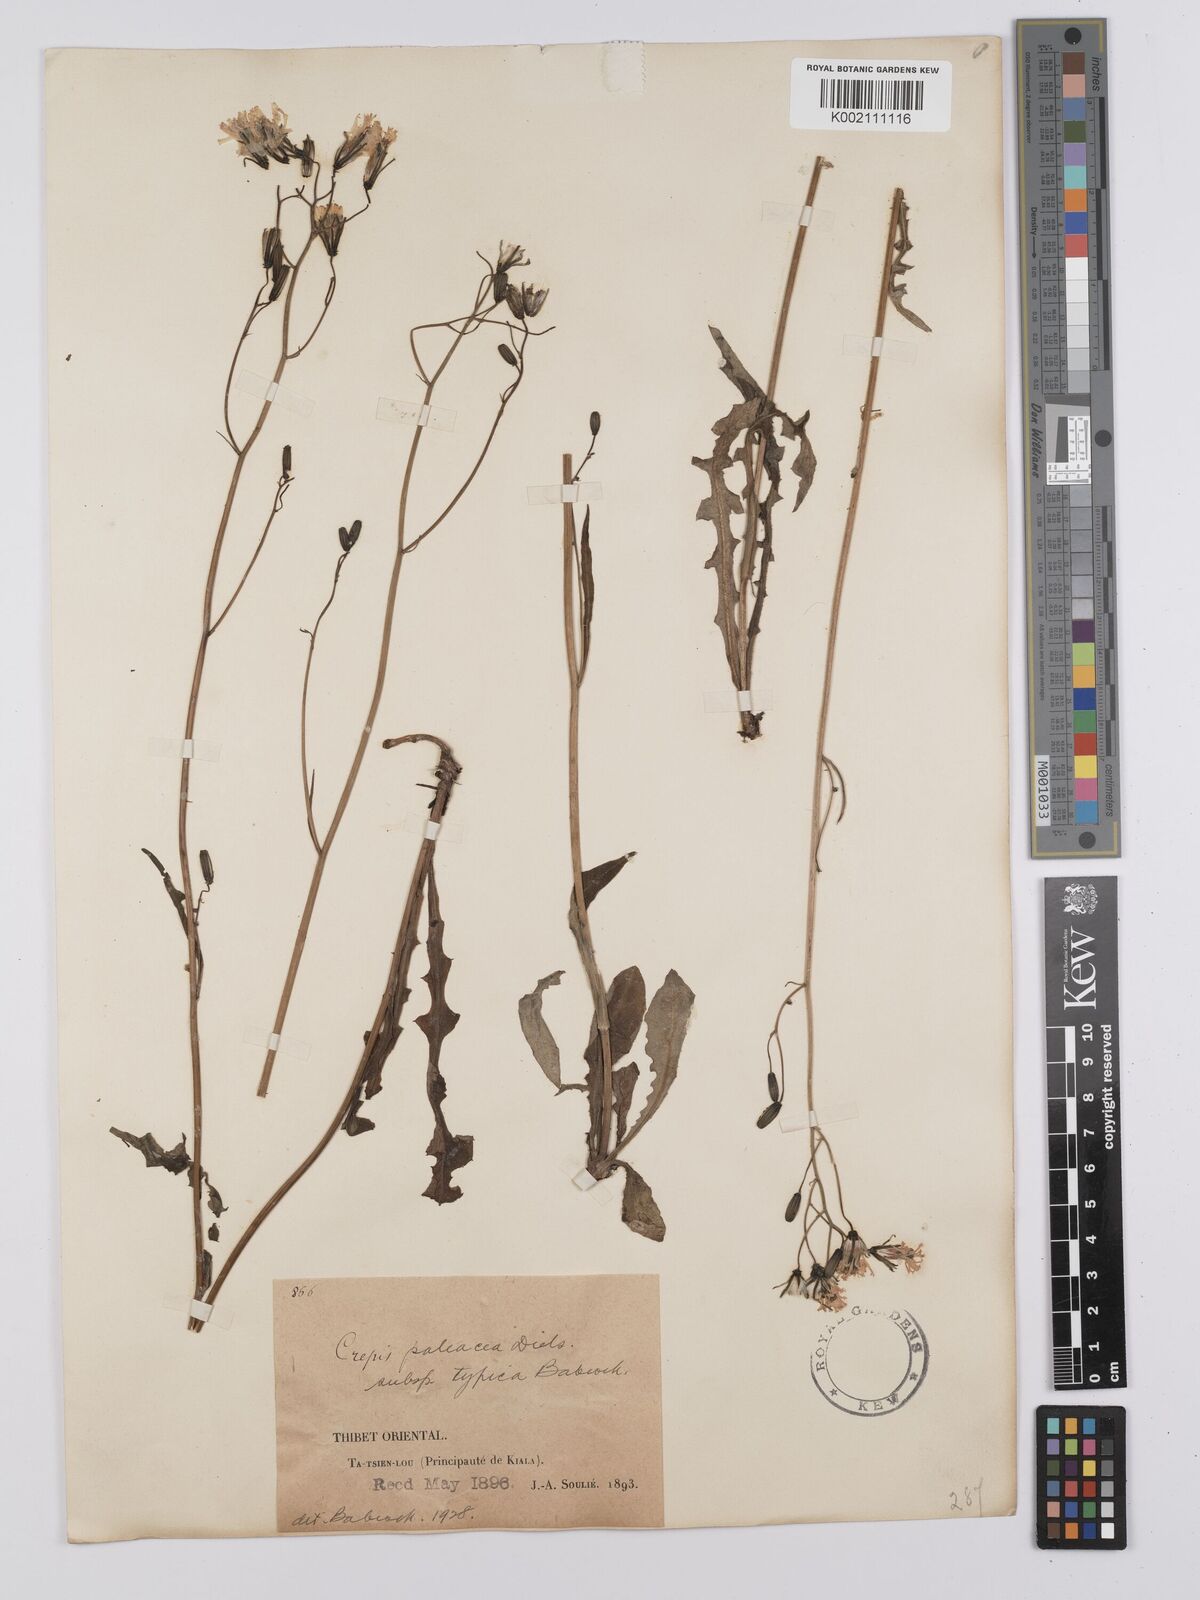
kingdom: Plantae
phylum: Tracheophyta
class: Magnoliopsida
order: Asterales
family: Asteraceae
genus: Youngia
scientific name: Youngia paleacea
